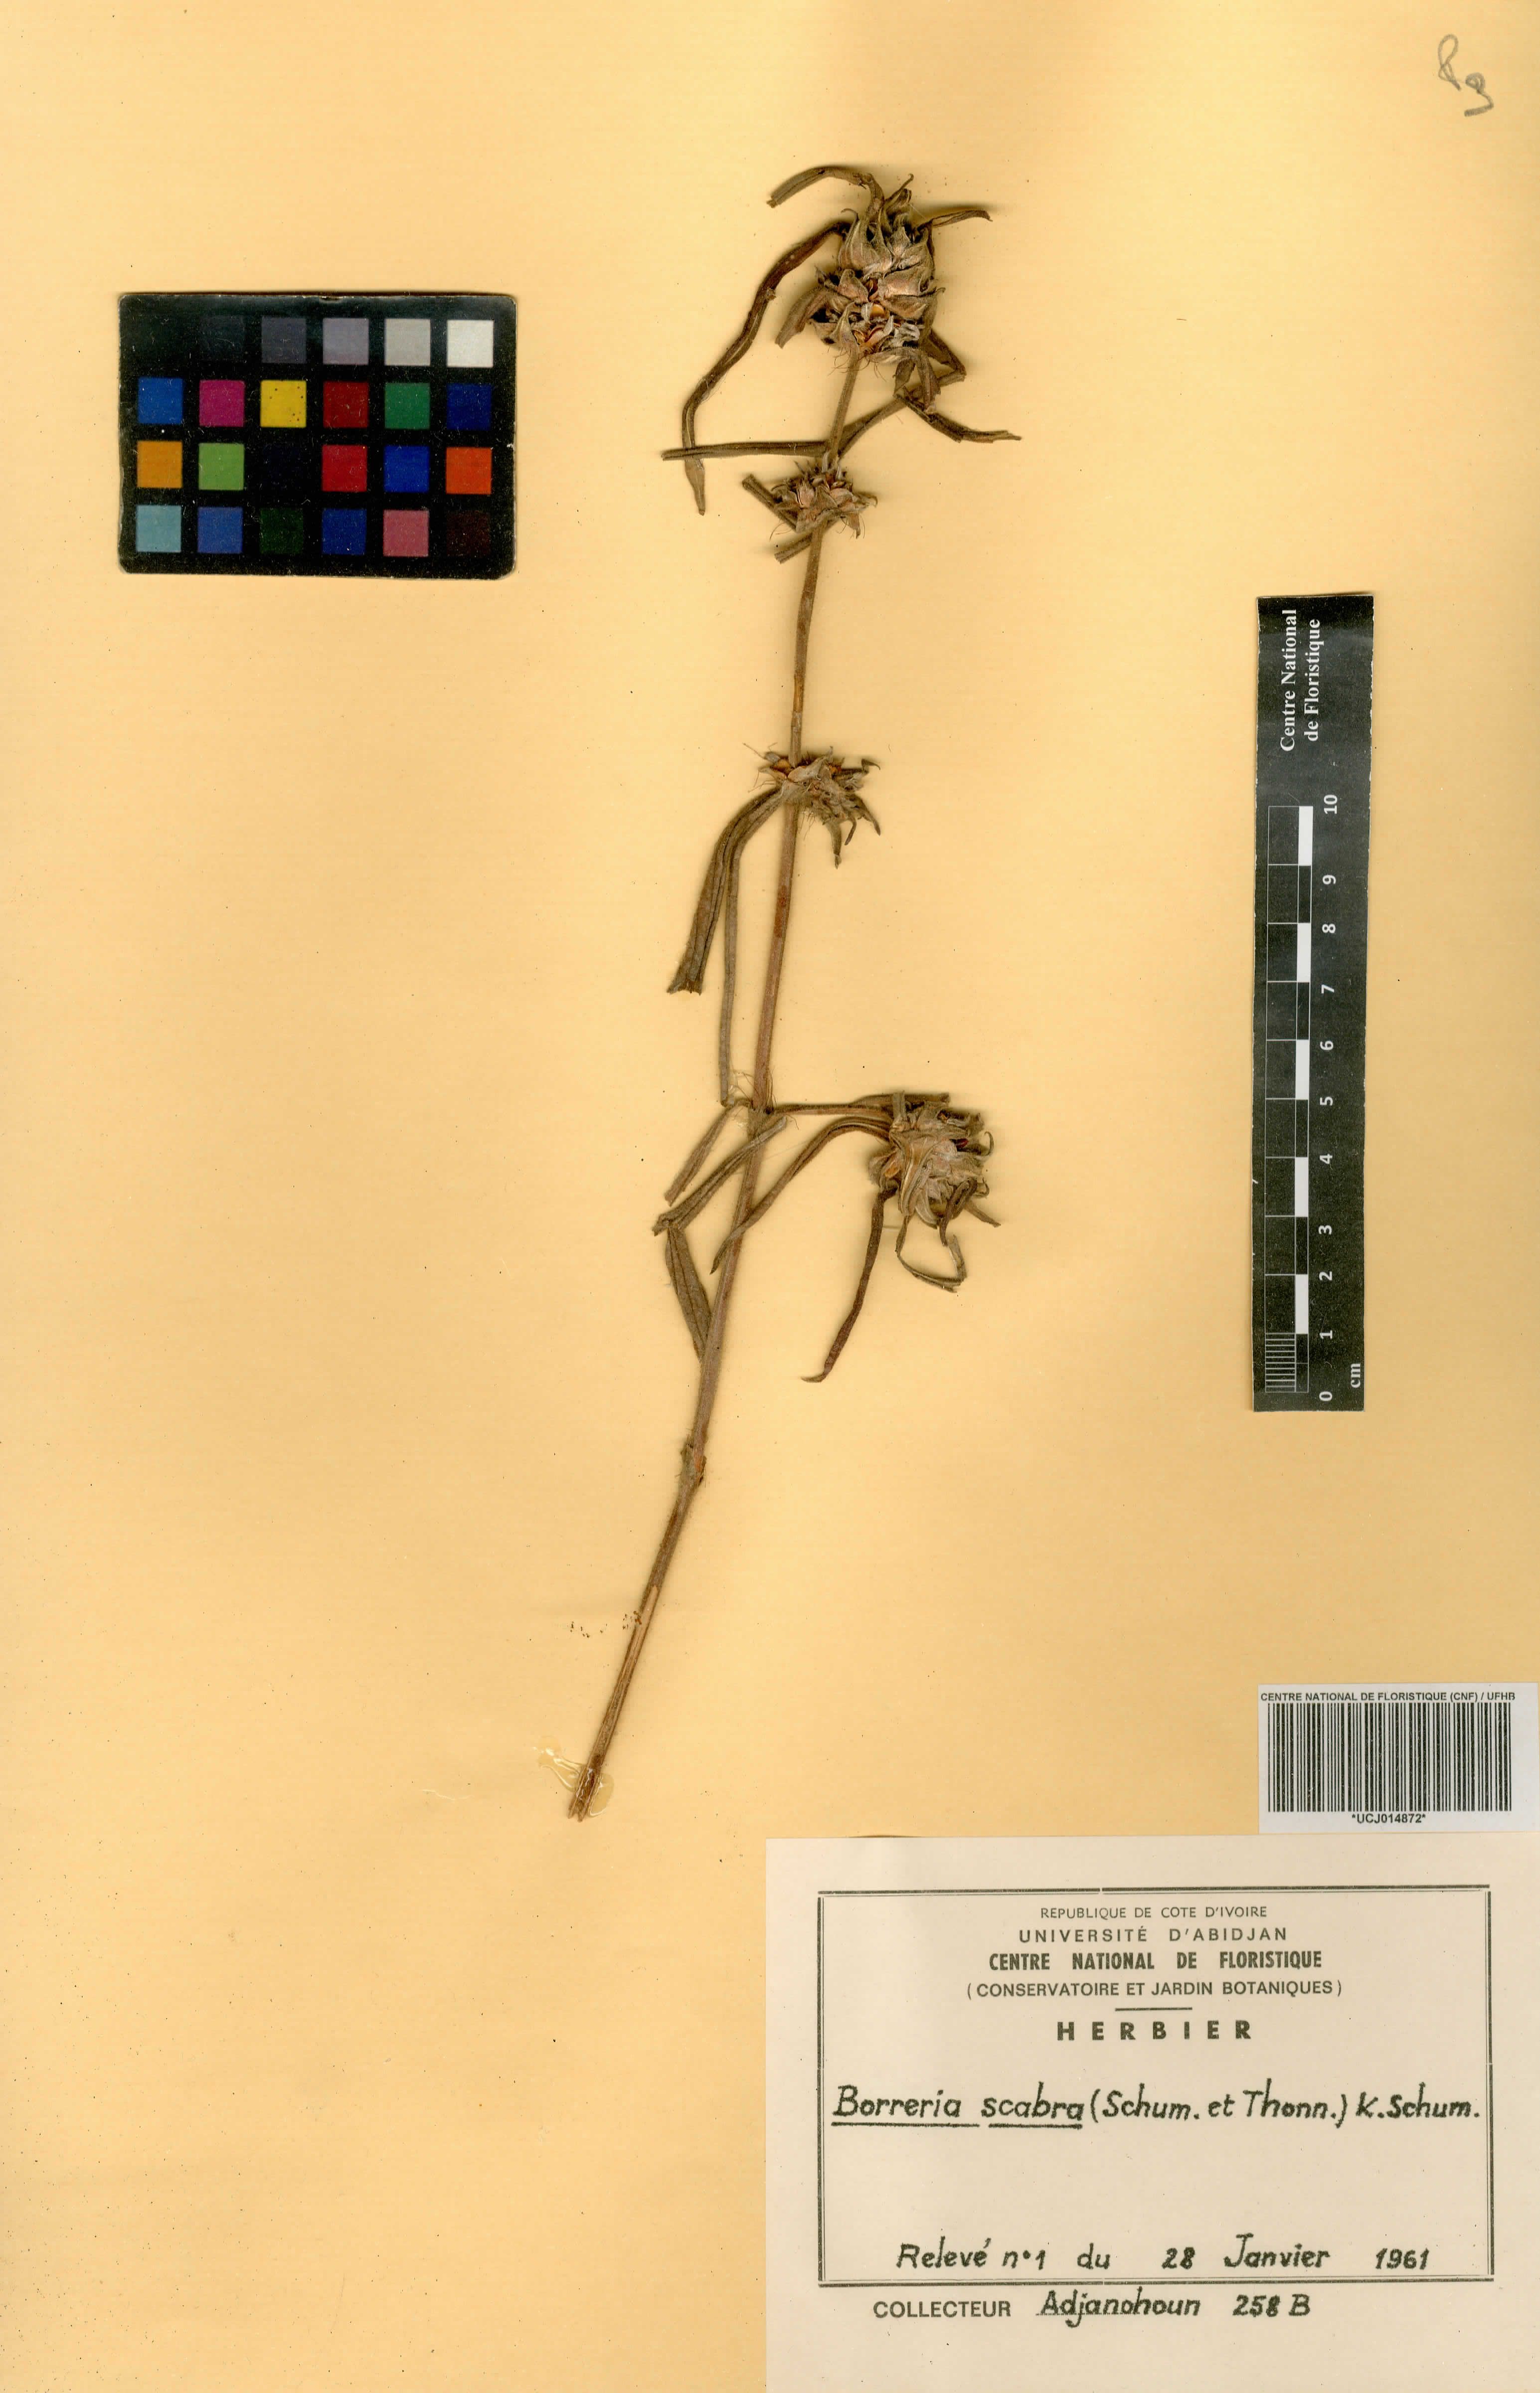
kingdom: Plantae
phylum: Tracheophyta
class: Magnoliopsida
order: Gentianales
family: Rubiaceae
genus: Spermacoce
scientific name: Spermacoce ruelliae
